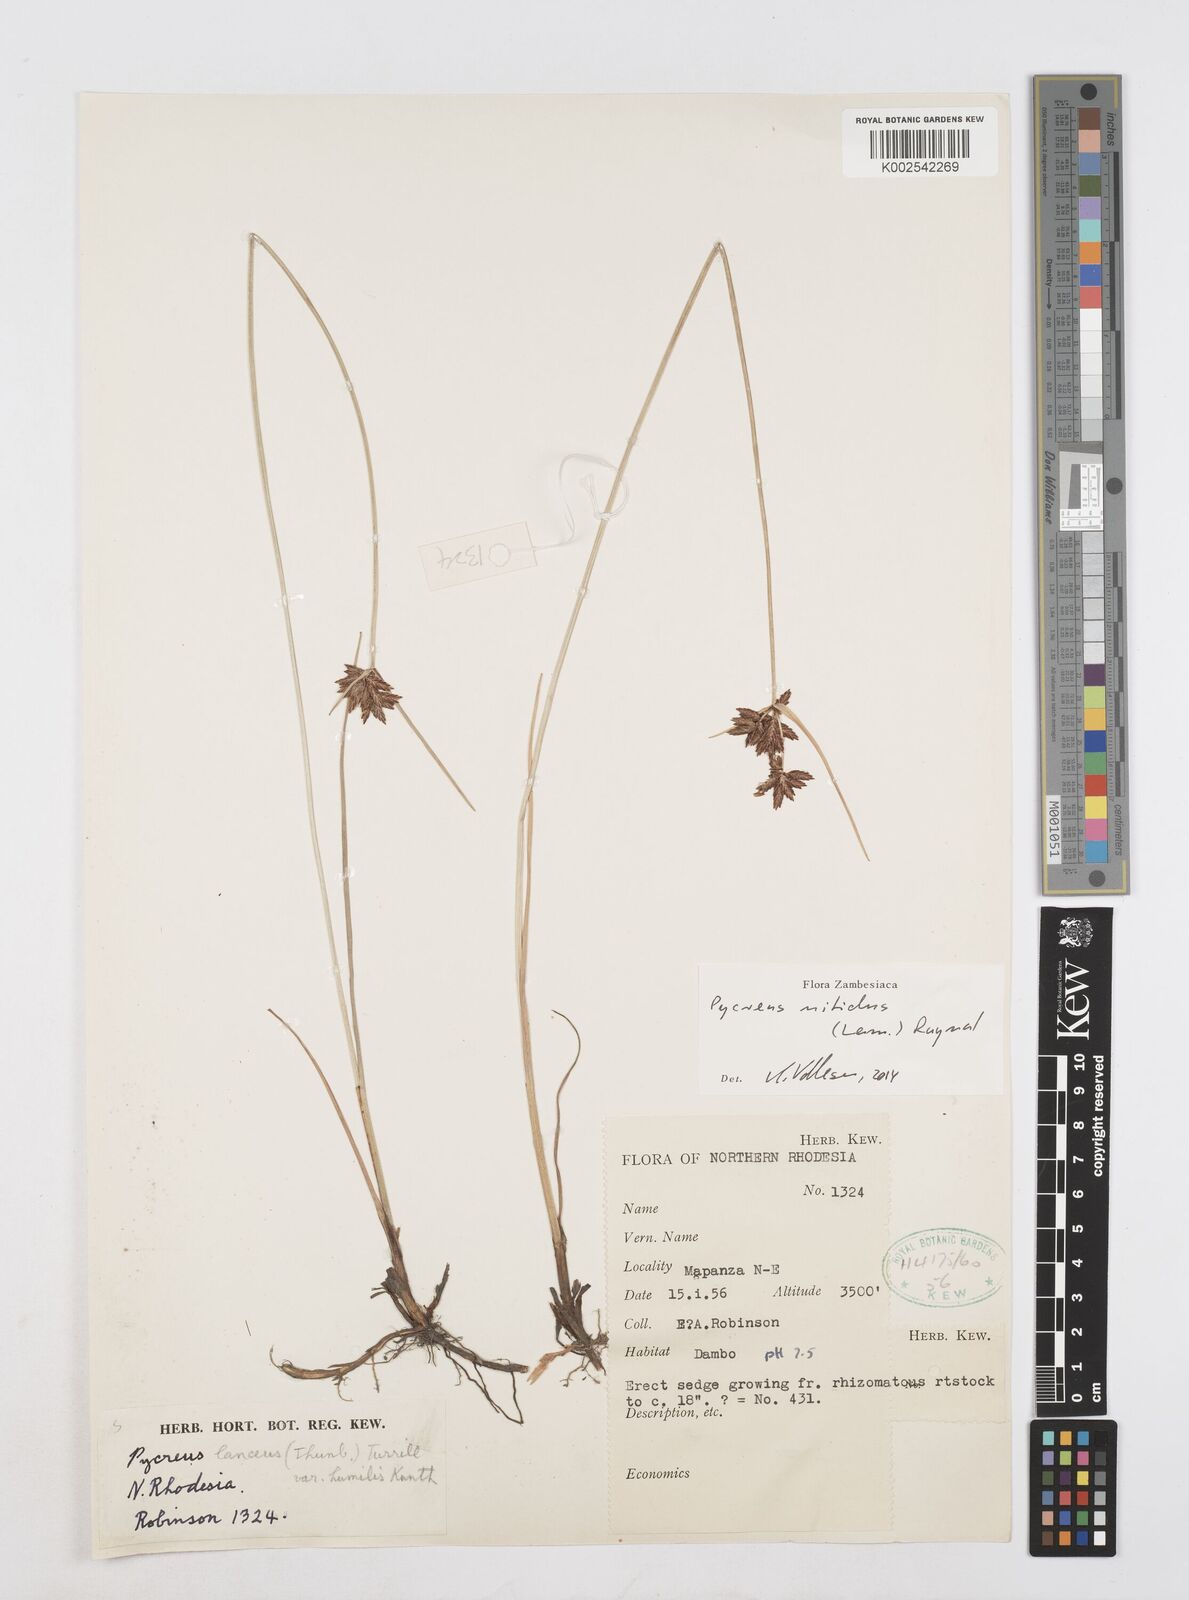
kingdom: Plantae
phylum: Tracheophyta
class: Liliopsida
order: Poales
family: Cyperaceae
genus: Cyperus
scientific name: Cyperus nitidus
